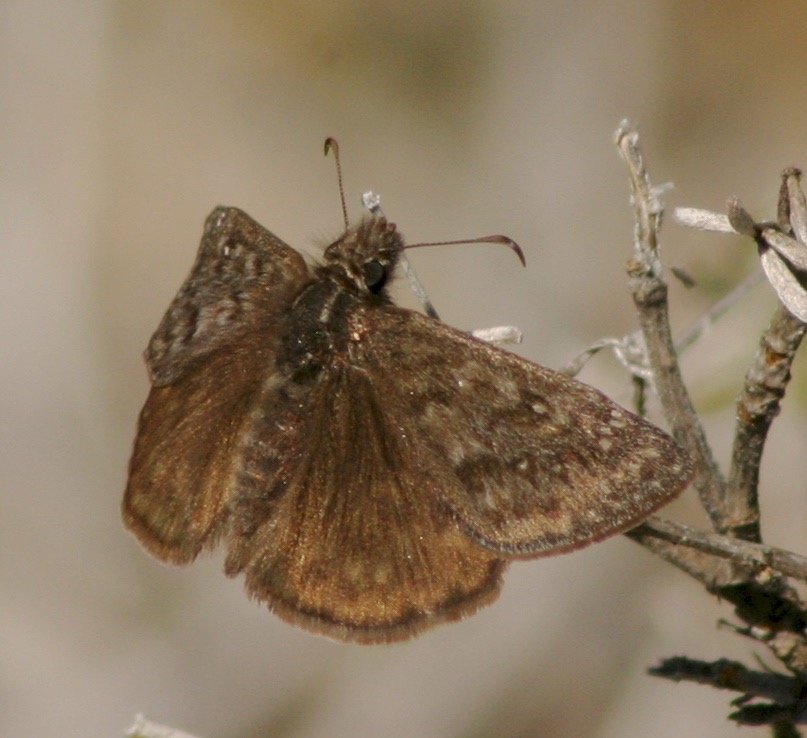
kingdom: Animalia
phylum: Arthropoda
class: Insecta
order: Lepidoptera
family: Hesperiidae
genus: Erynnis
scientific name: Erynnis propertius
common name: Propertius Duskywing
